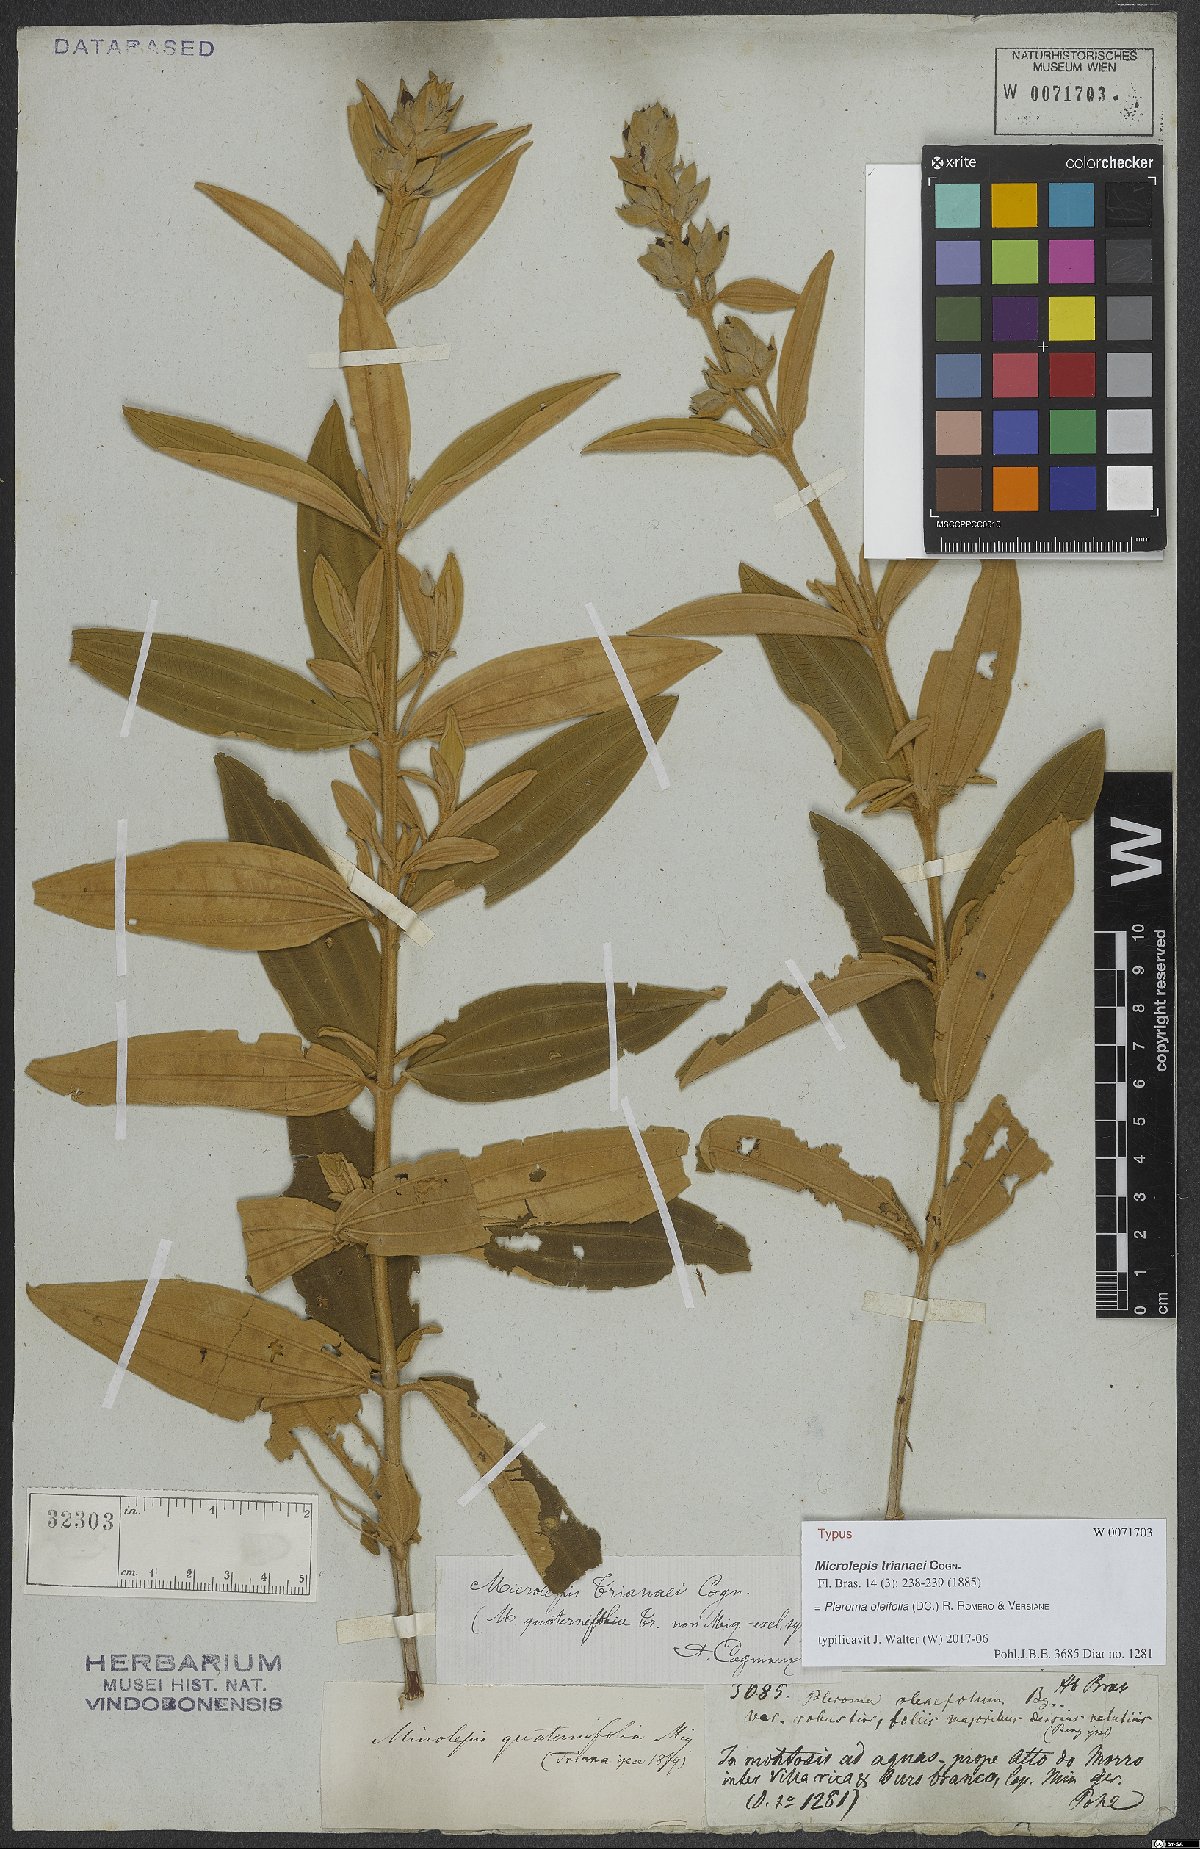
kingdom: Plantae
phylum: Tracheophyta
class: Magnoliopsida
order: Myrtales
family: Melastomataceae
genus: Pleroma
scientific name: Pleroma oleifolia
